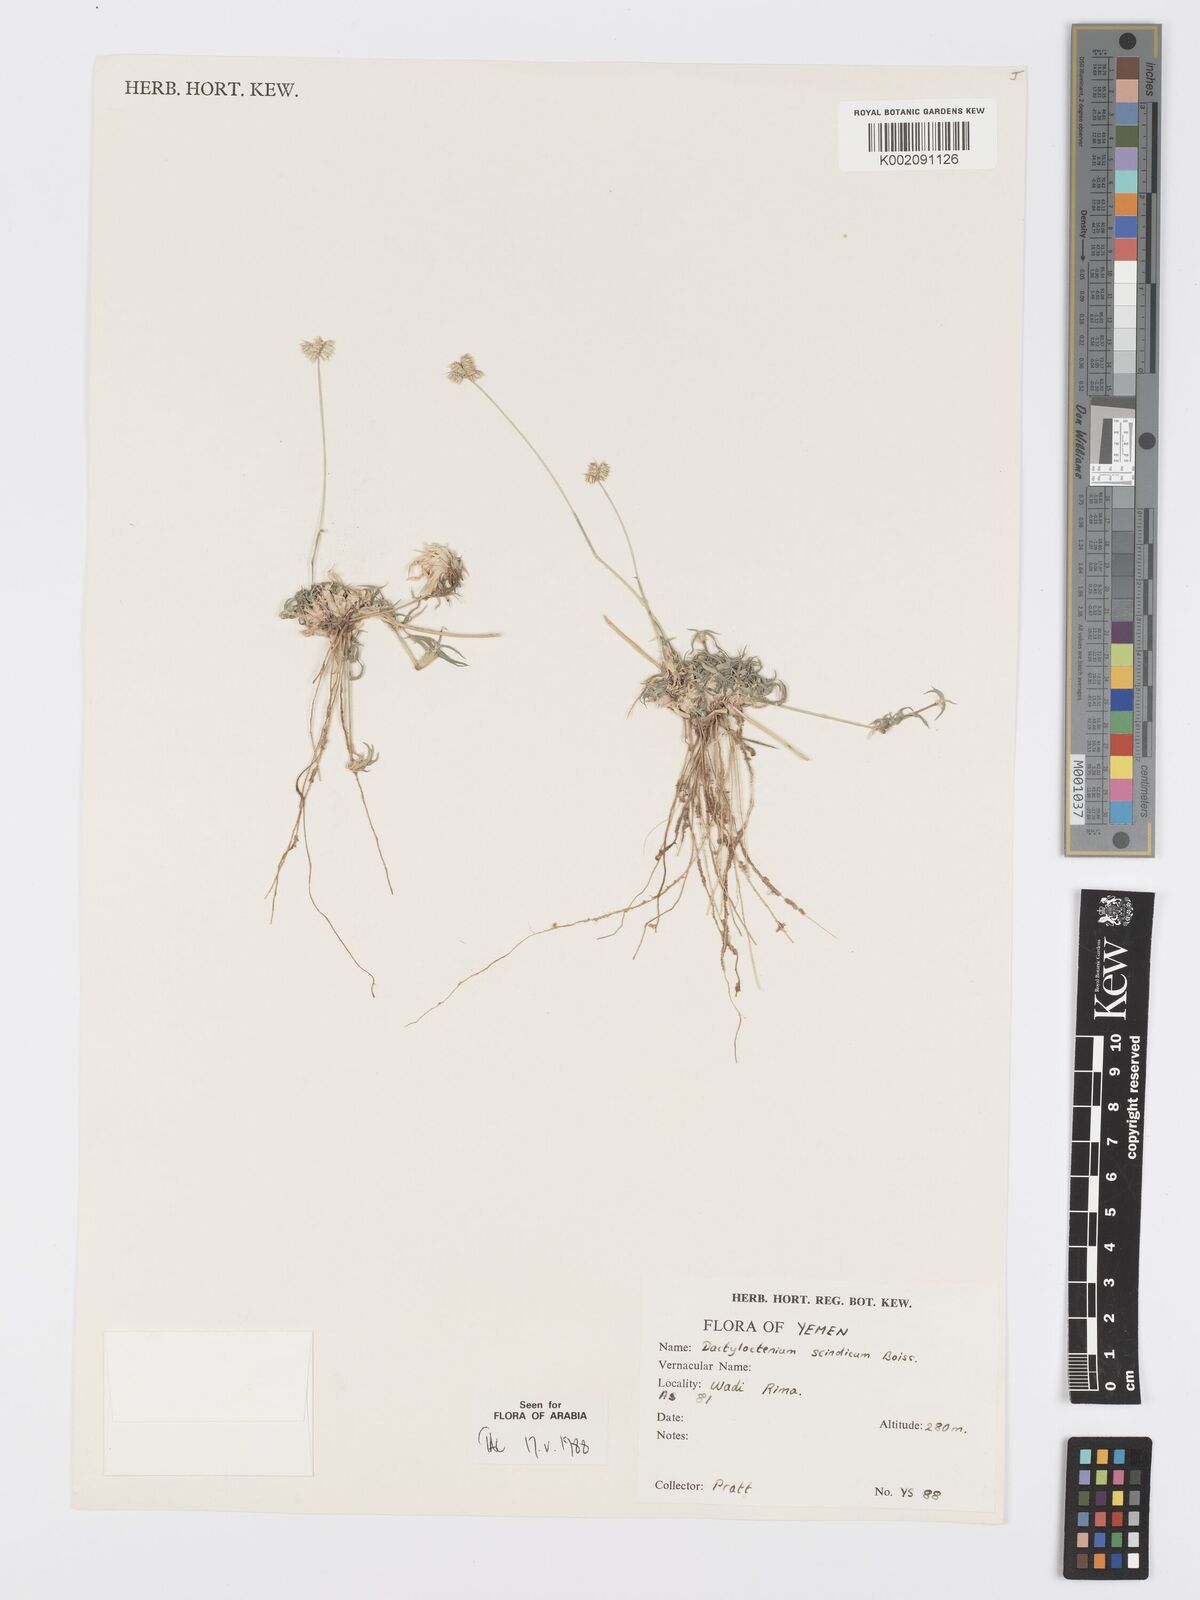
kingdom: Plantae
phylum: Tracheophyta
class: Liliopsida
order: Poales
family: Poaceae
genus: Dactyloctenium
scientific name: Dactyloctenium scindicum
